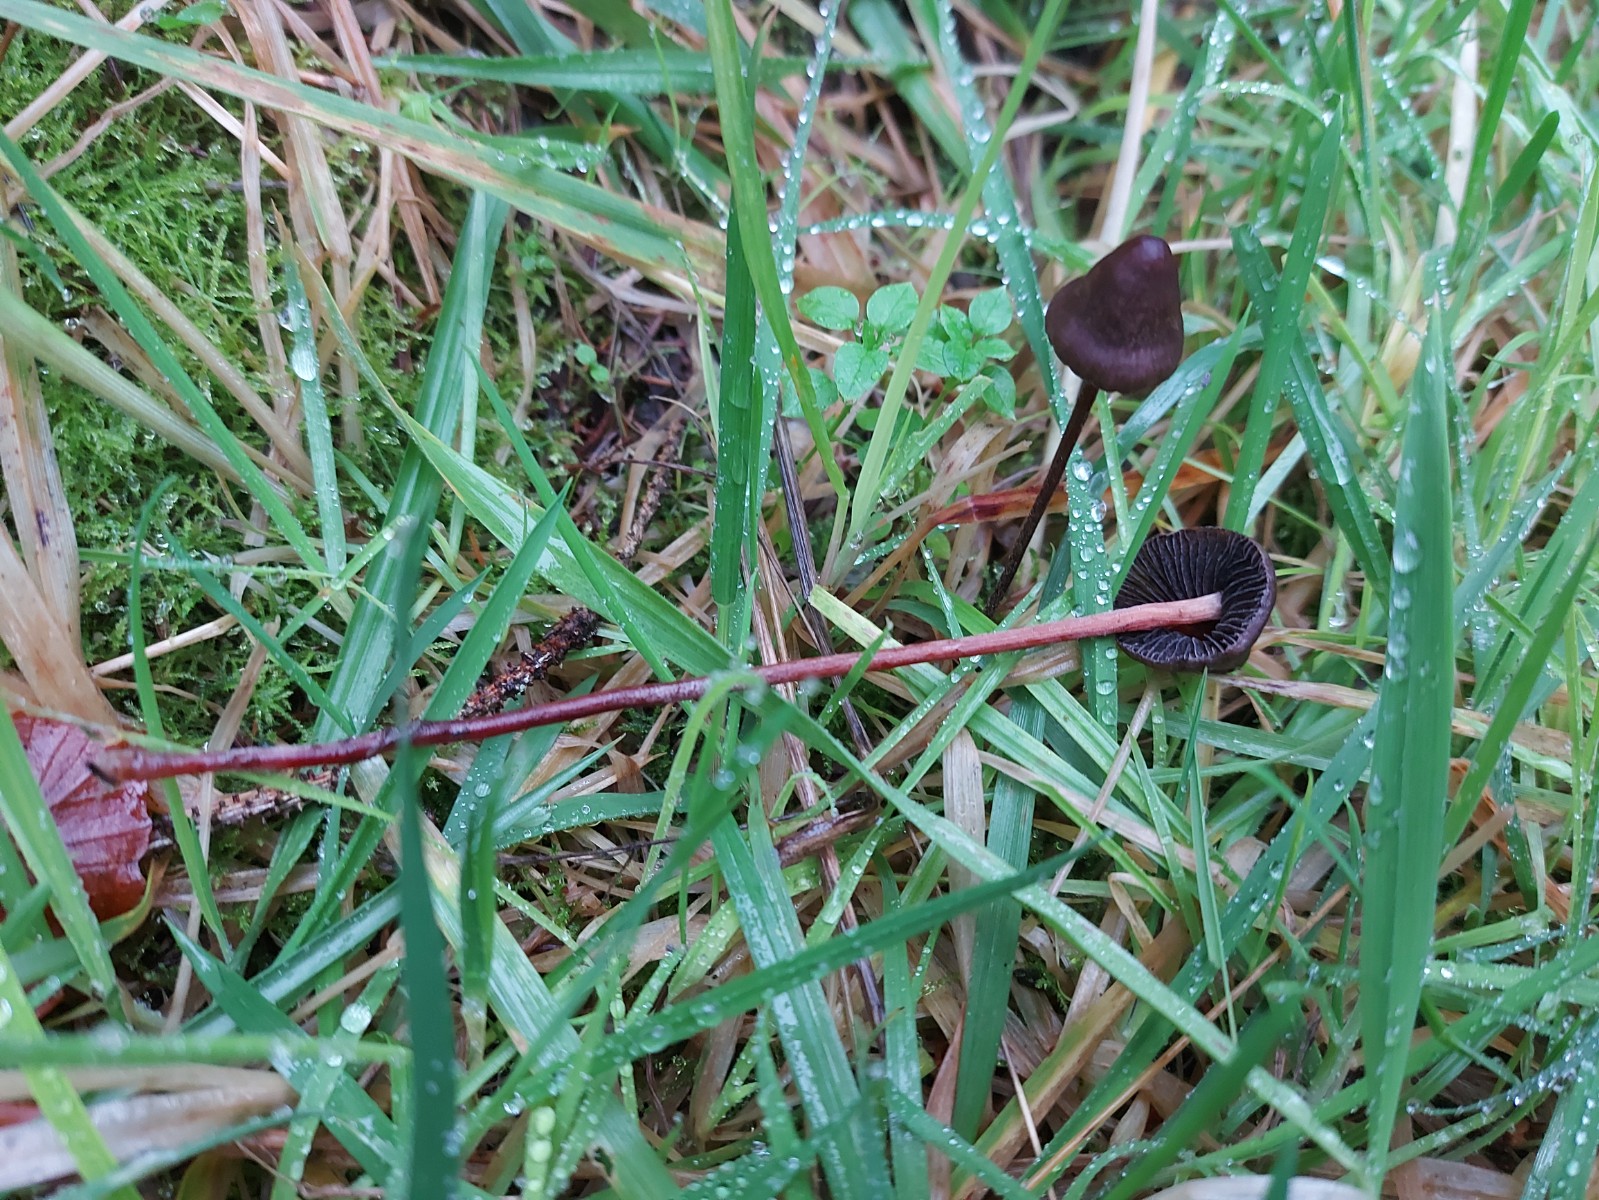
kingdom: Fungi
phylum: Basidiomycota
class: Agaricomycetes
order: Agaricales
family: Bolbitiaceae
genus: Panaeolus
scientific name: Panaeolus acuminatus
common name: høj glanshat
